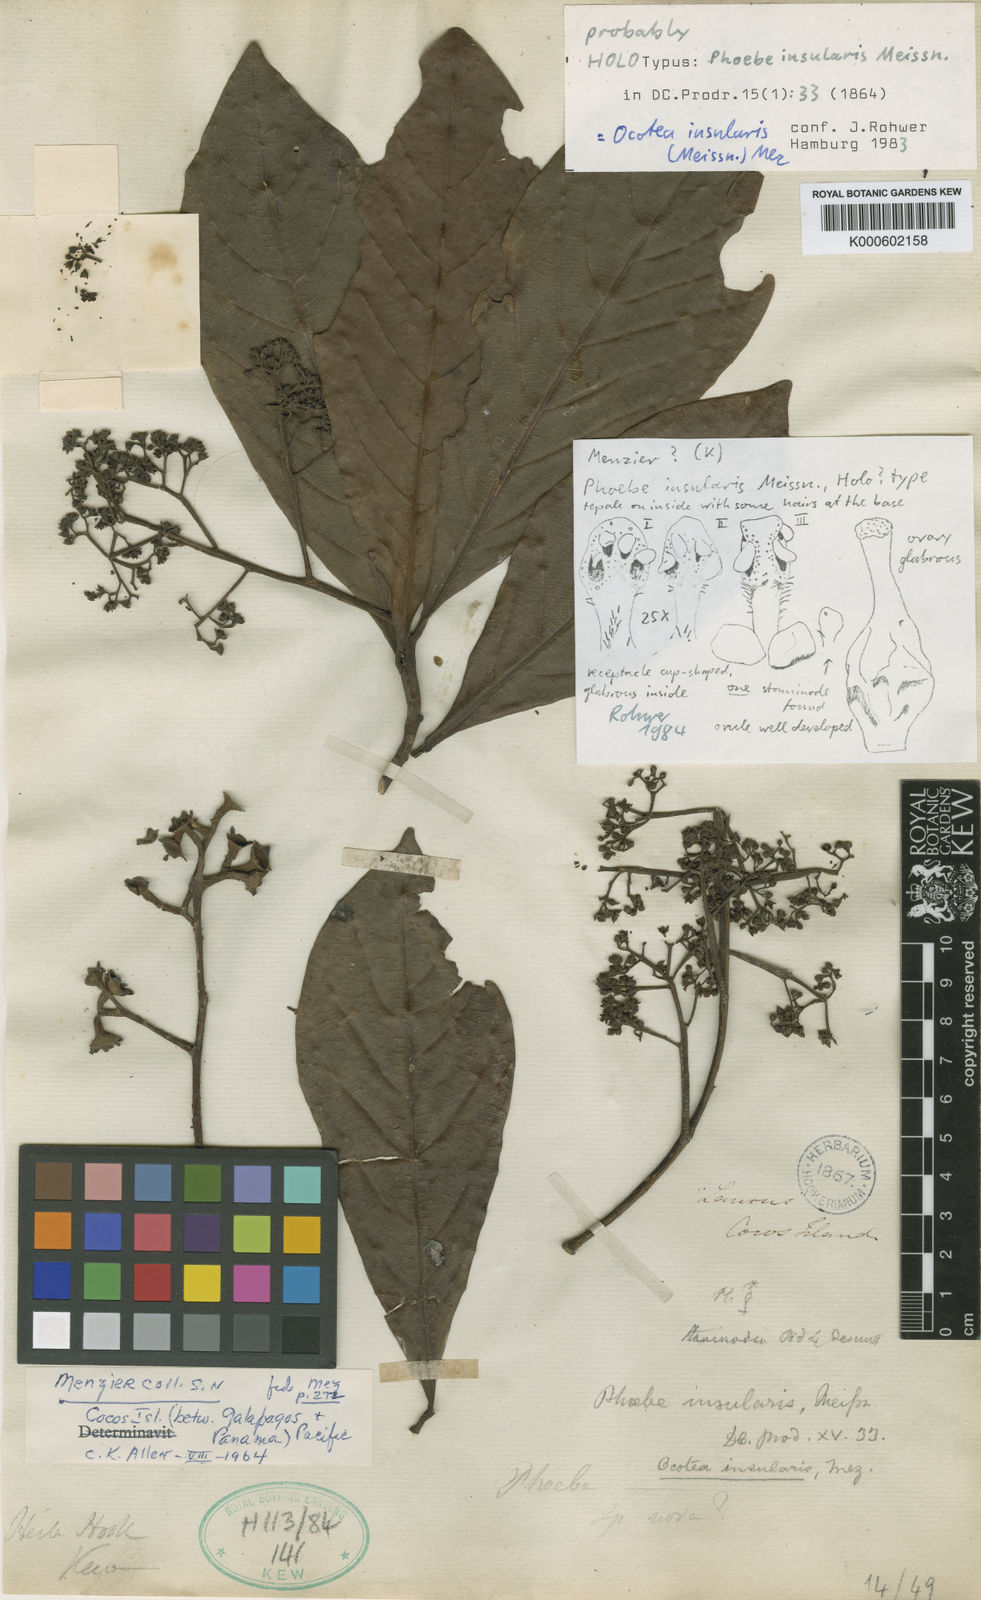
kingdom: Plantae
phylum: Tracheophyta
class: Magnoliopsida
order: Laurales
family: Lauraceae
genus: Ocotea
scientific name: Ocotea insularis
